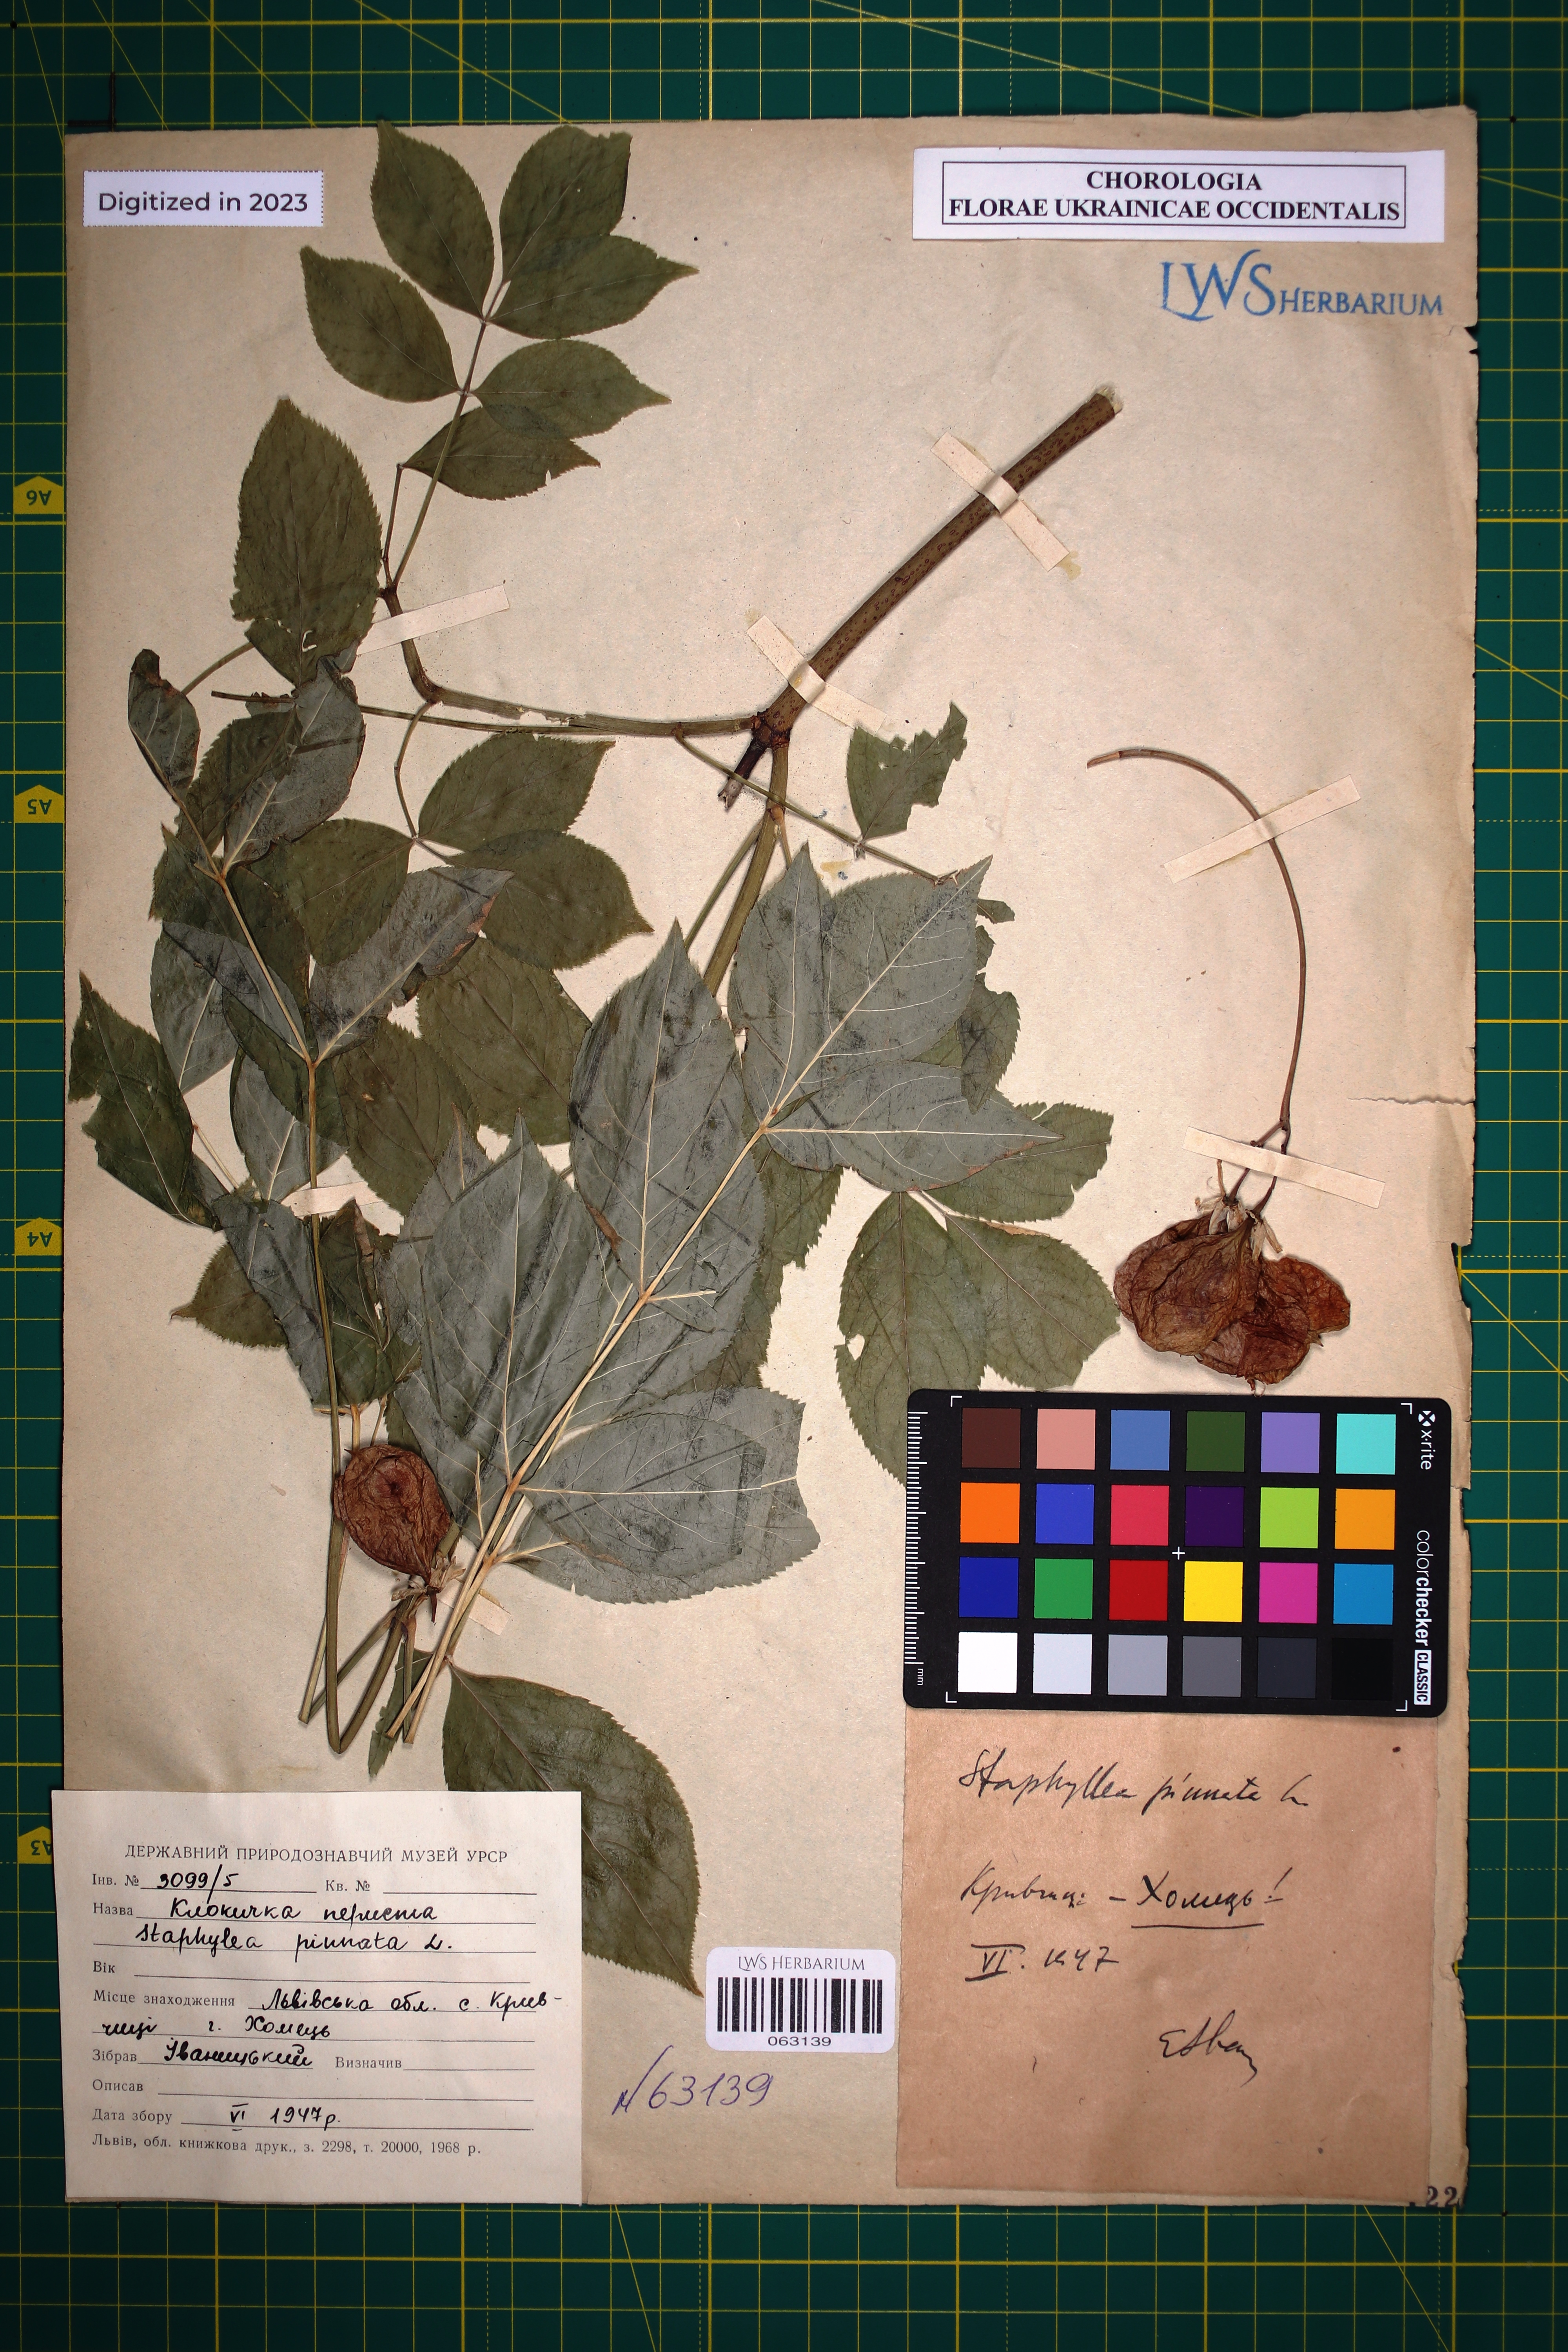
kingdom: Plantae
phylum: Tracheophyta
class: Magnoliopsida
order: Crossosomatales
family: Staphyleaceae
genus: Staphylea
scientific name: Staphylea pinnata
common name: Bladdernut
